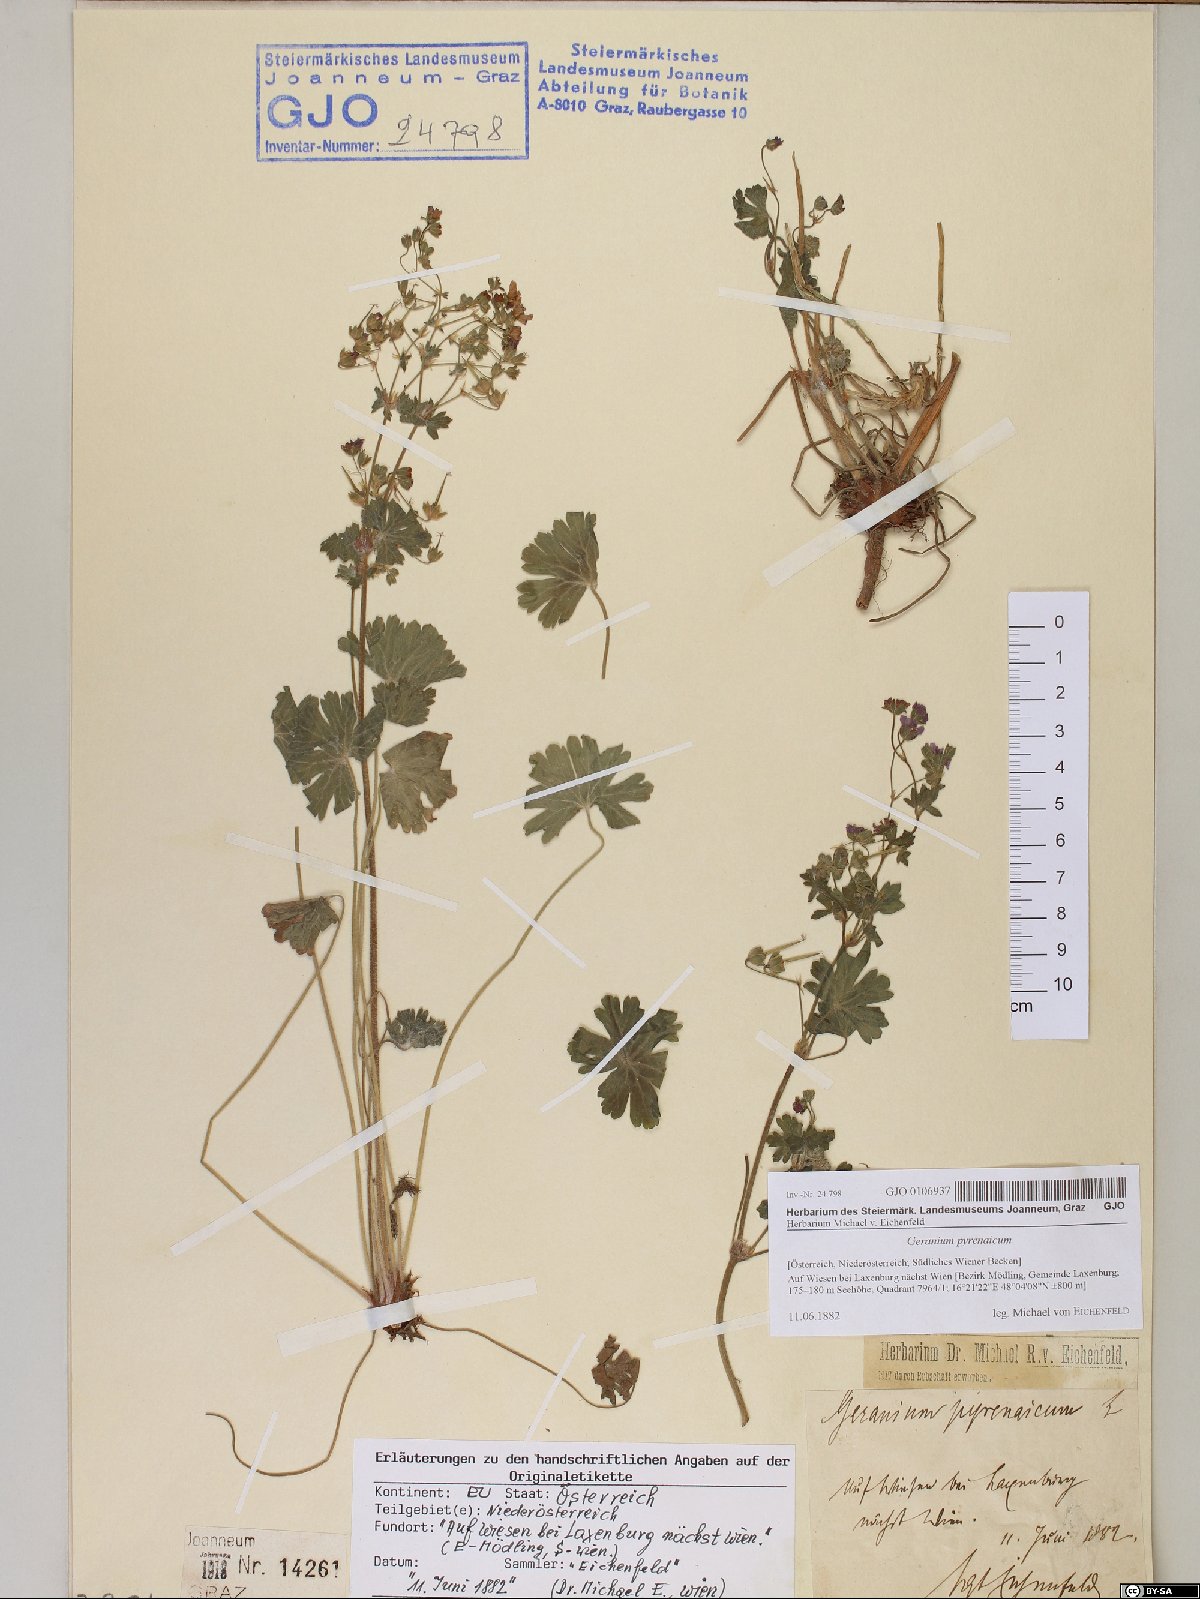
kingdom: Plantae
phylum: Tracheophyta
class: Magnoliopsida
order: Geraniales
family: Geraniaceae
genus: Geranium
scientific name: Geranium pyrenaicum
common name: Hedgerow crane's-bill
